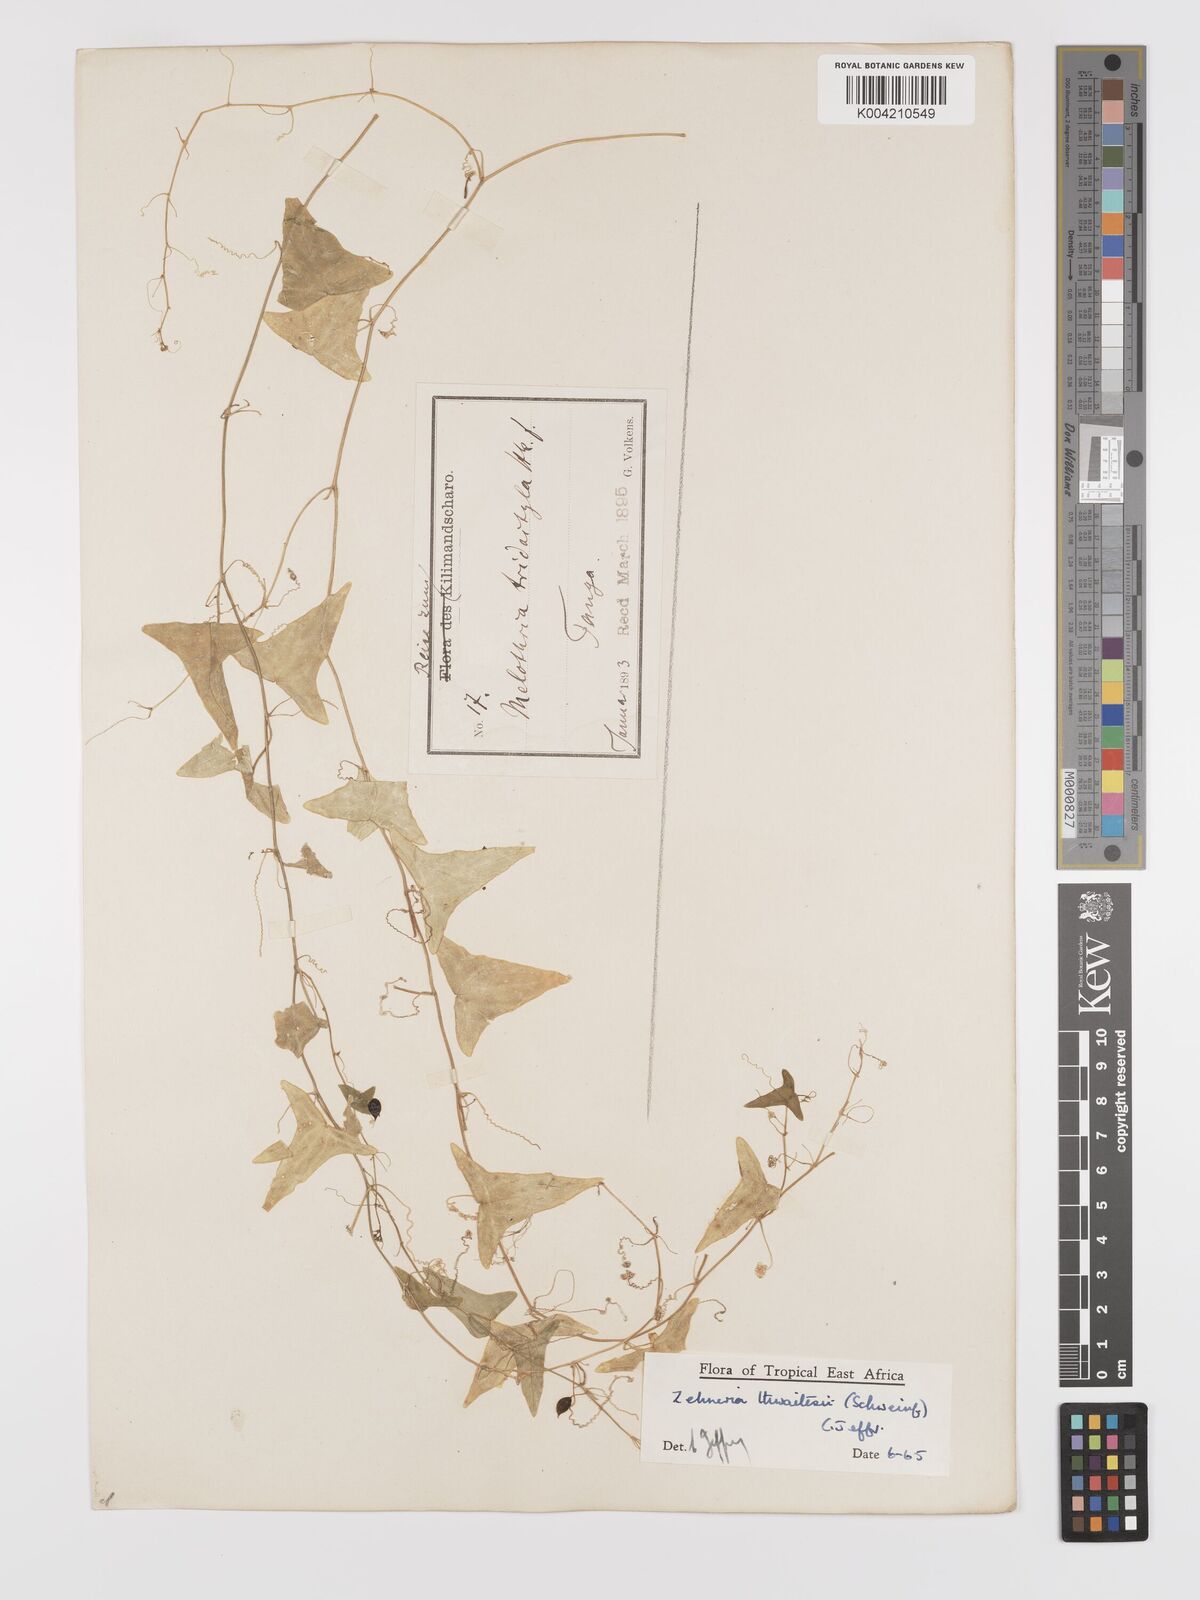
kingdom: Plantae
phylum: Tracheophyta
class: Magnoliopsida
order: Cucurbitales
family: Cucurbitaceae
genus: Zehneria
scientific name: Zehneria thwaitesii
